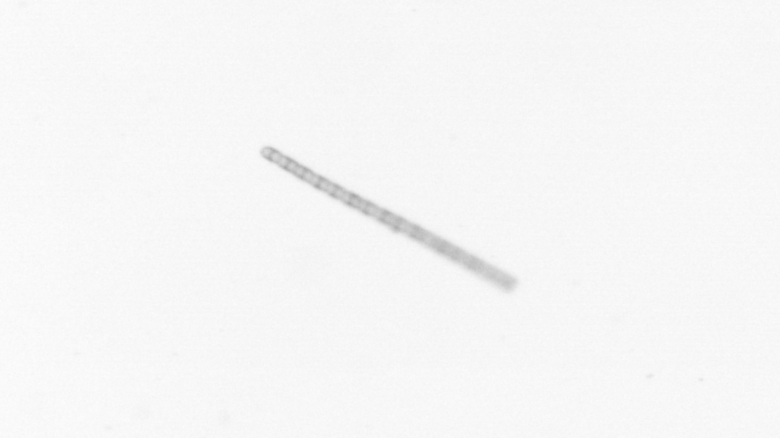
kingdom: Chromista
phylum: Ochrophyta
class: Bacillariophyceae
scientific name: Bacillariophyceae
